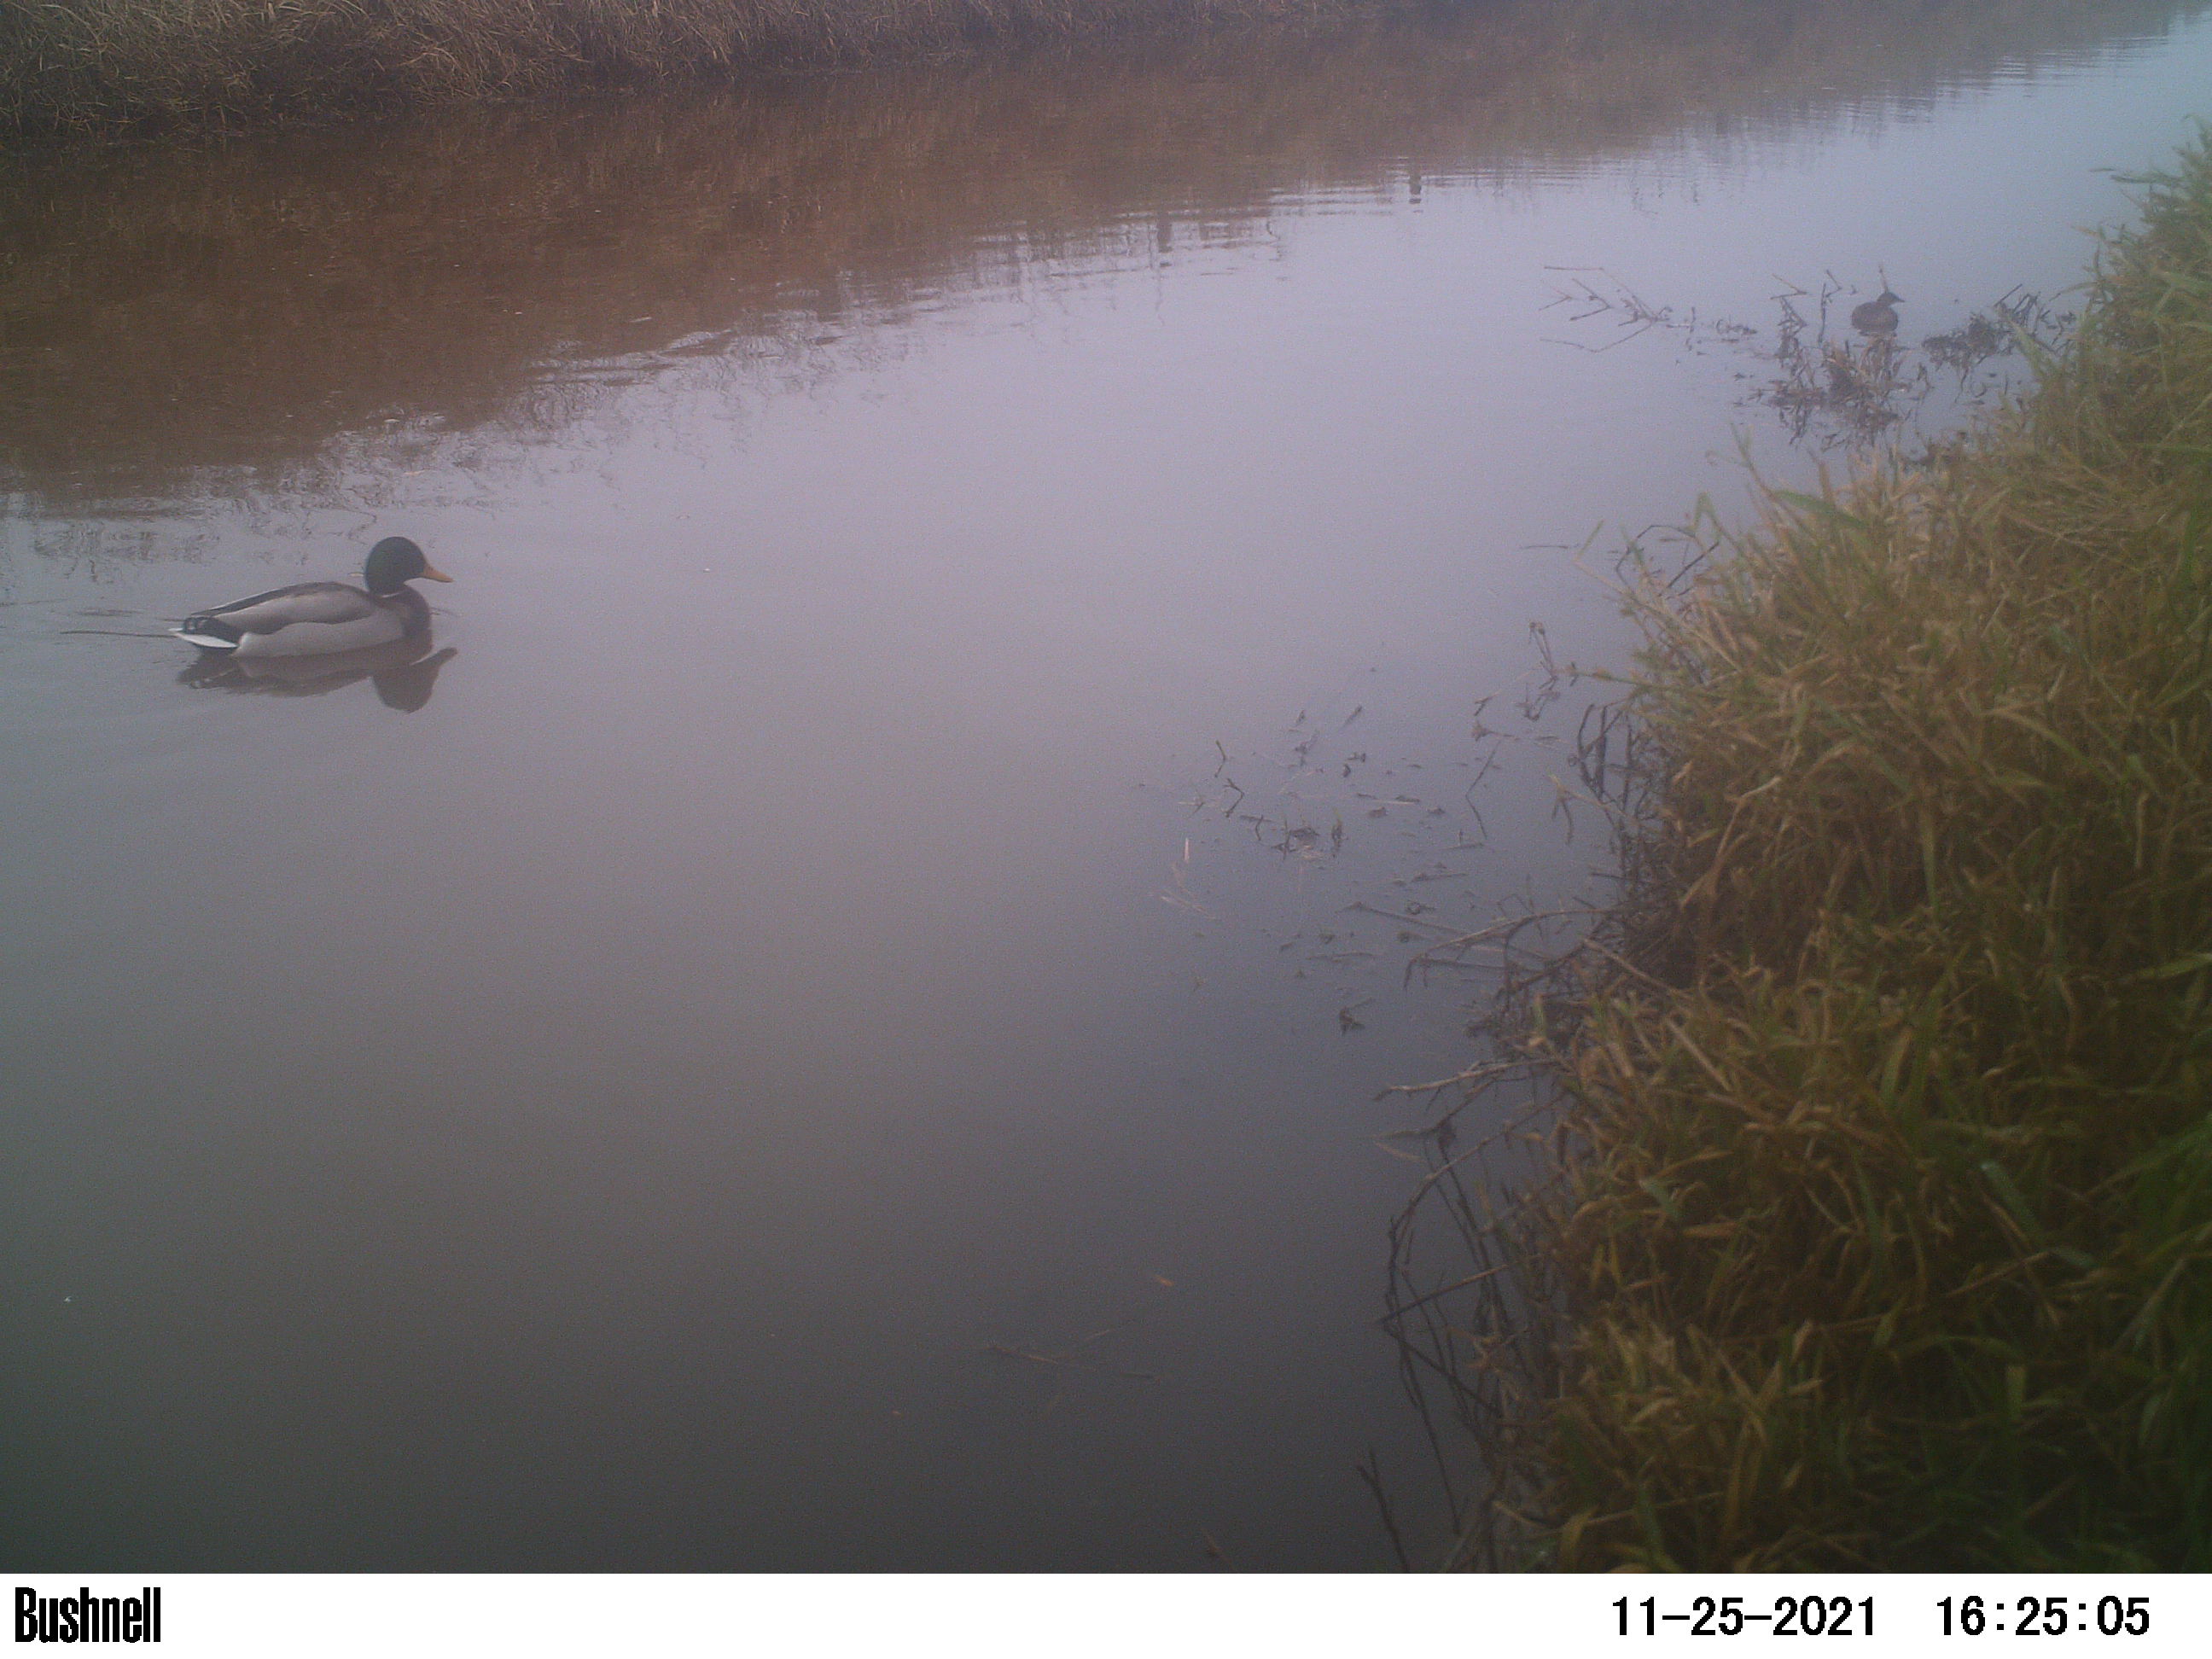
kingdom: Animalia
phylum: Chordata
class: Aves
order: Anseriformes
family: Anatidae
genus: Anas
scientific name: Anas
